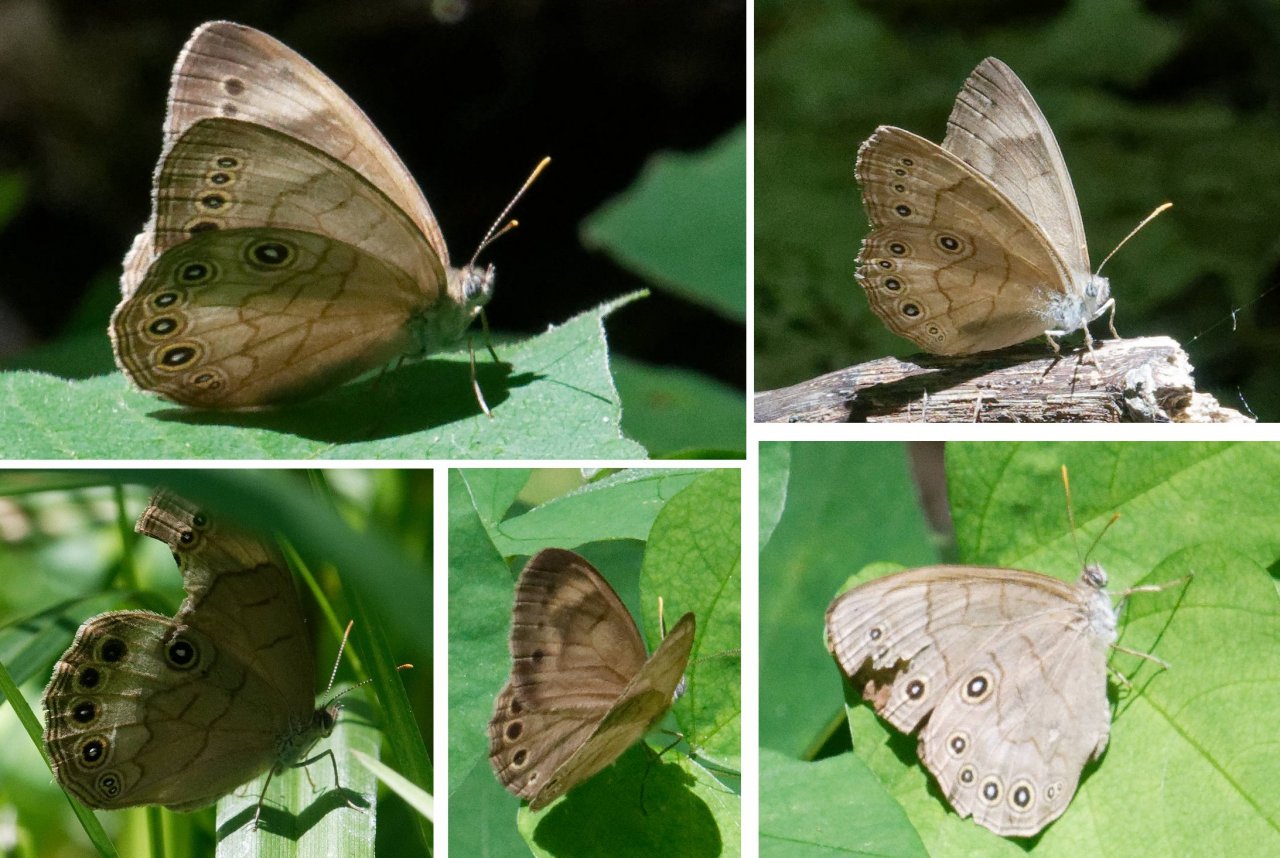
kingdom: Animalia
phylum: Arthropoda
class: Insecta
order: Lepidoptera
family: Nymphalidae
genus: Lethe
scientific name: Lethe eurydice
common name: Appalachian Eyed Brown
